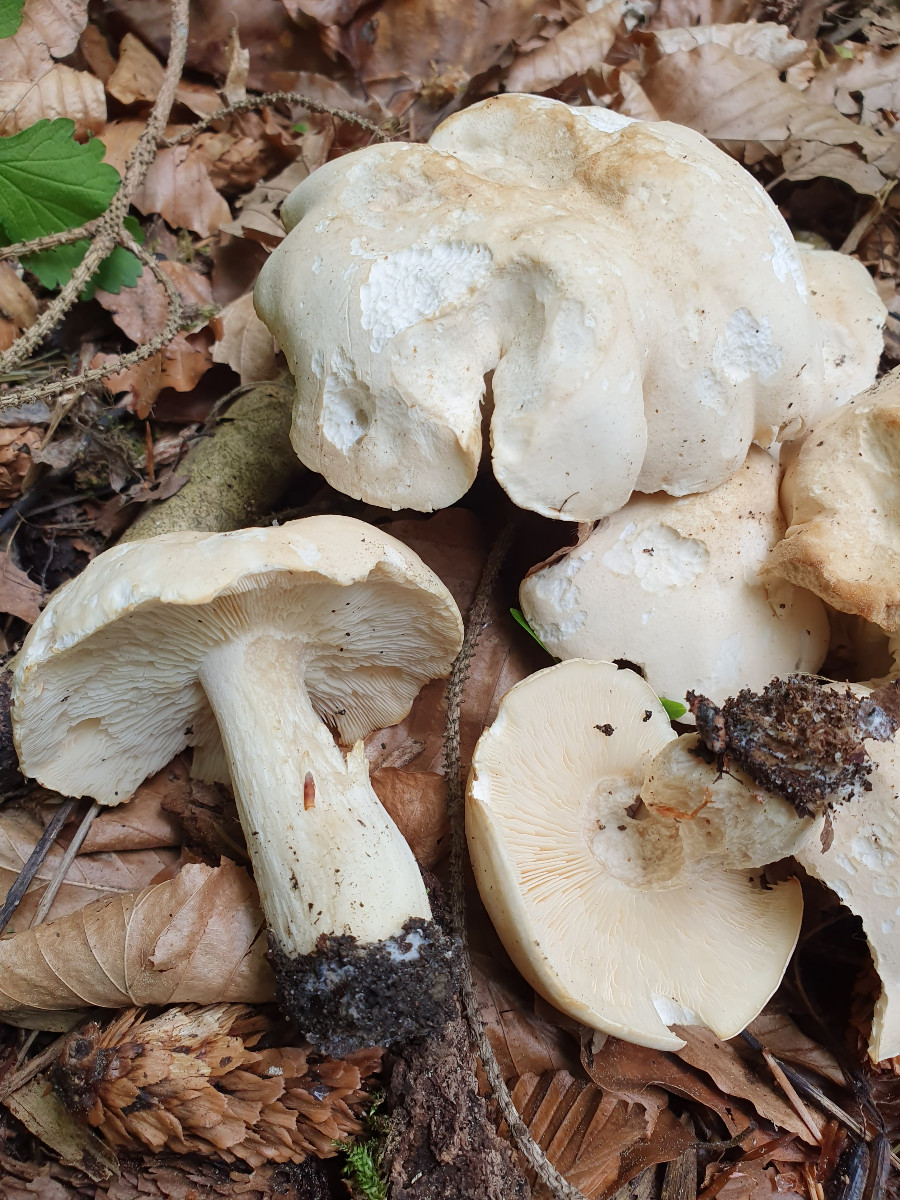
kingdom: Fungi
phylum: Basidiomycota
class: Agaricomycetes
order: Agaricales
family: Lyophyllaceae
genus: Calocybe
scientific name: Calocybe gambosa
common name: vårmusseron
